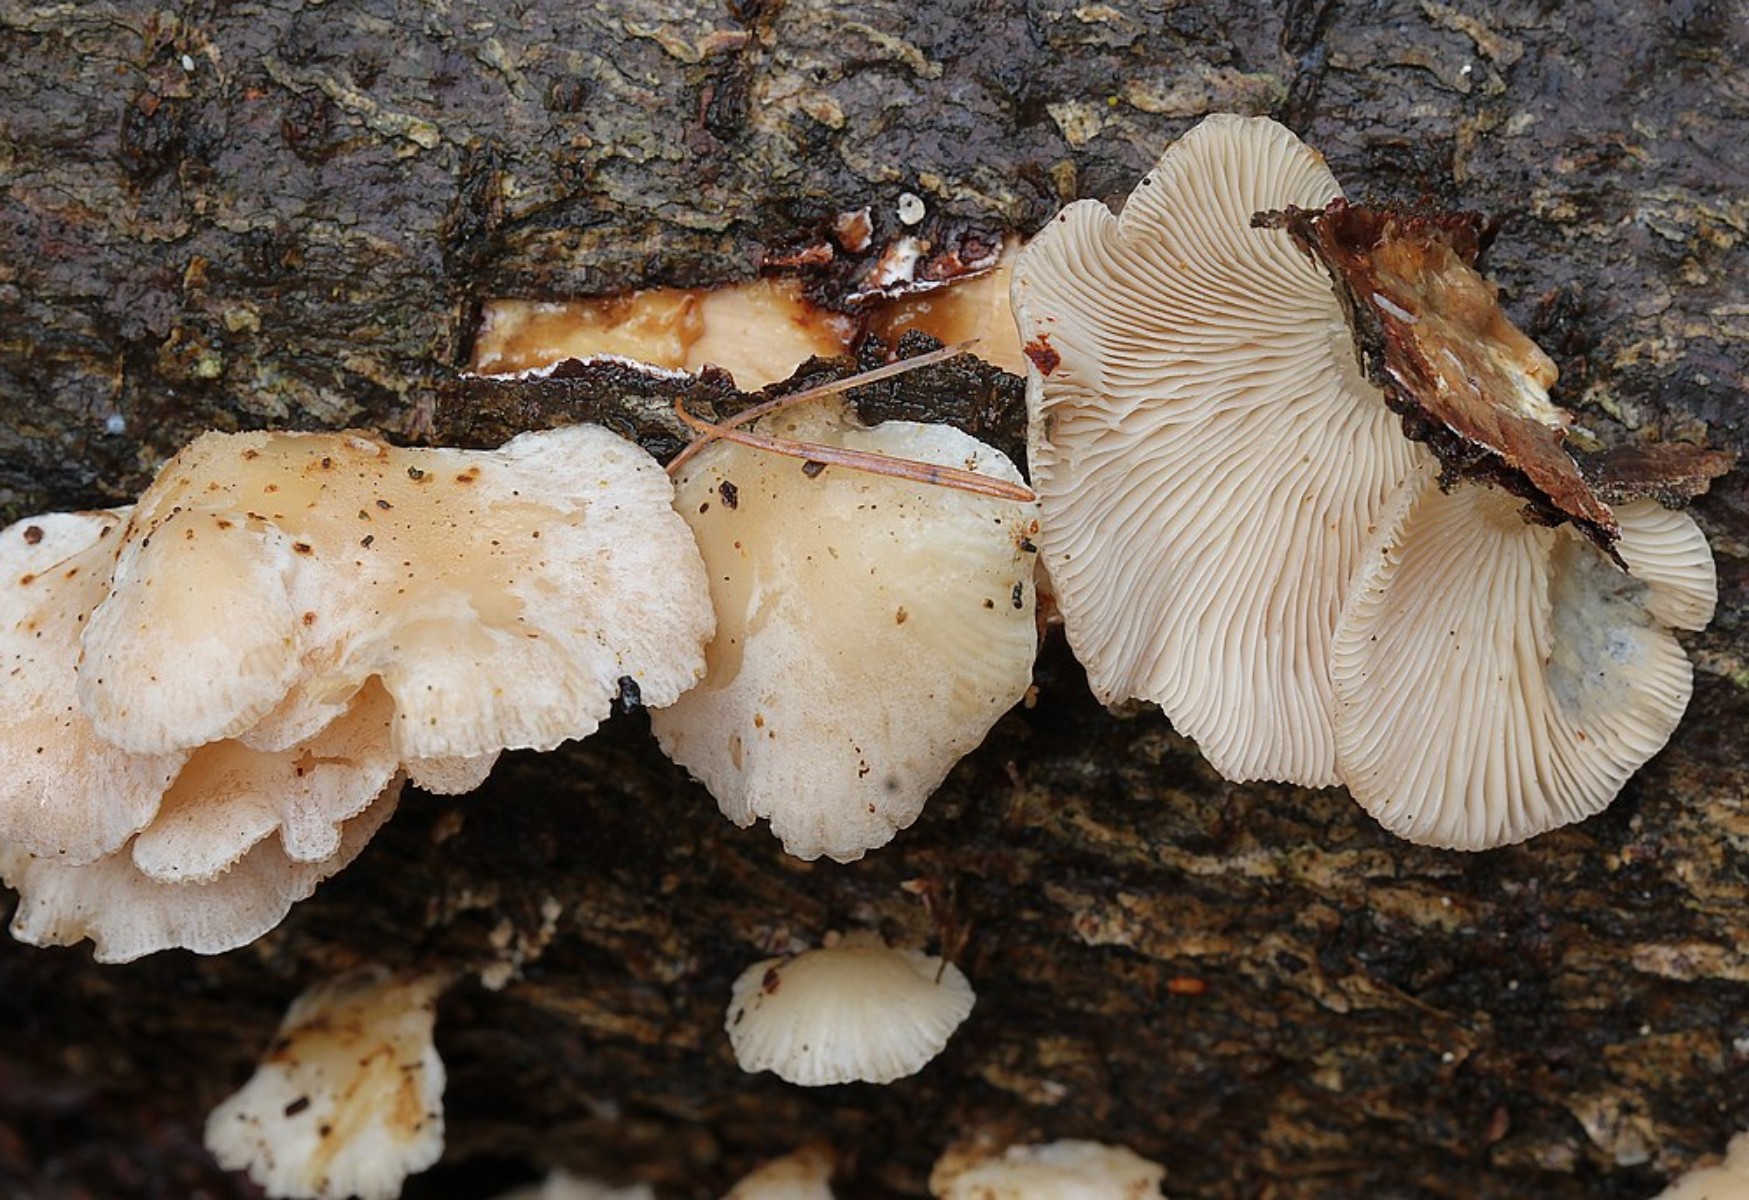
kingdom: Fungi
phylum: Basidiomycota
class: Agaricomycetes
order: Agaricales
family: Mycenaceae
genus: Panellus
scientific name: Panellus mitis
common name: mild epaulethat
